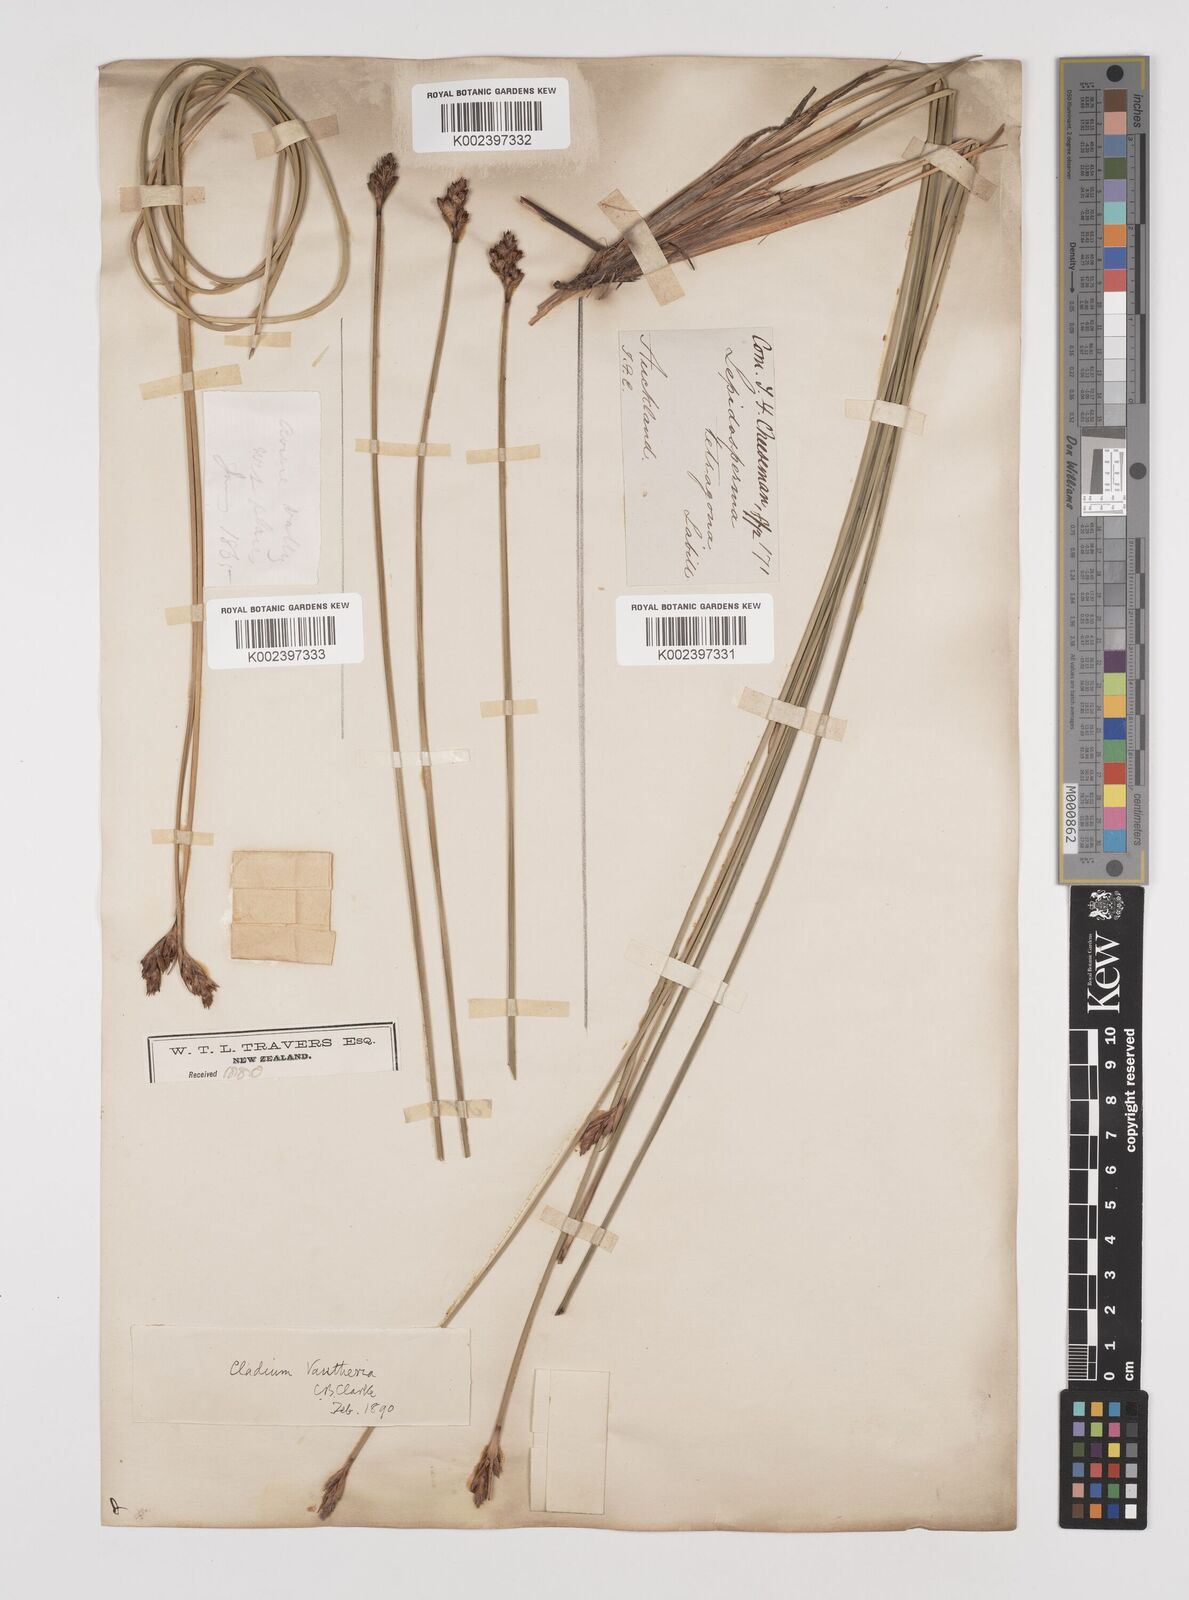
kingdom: Plantae
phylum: Tracheophyta
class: Liliopsida
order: Poales
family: Cyperaceae
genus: Lepidosperma
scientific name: Lepidosperma australe
